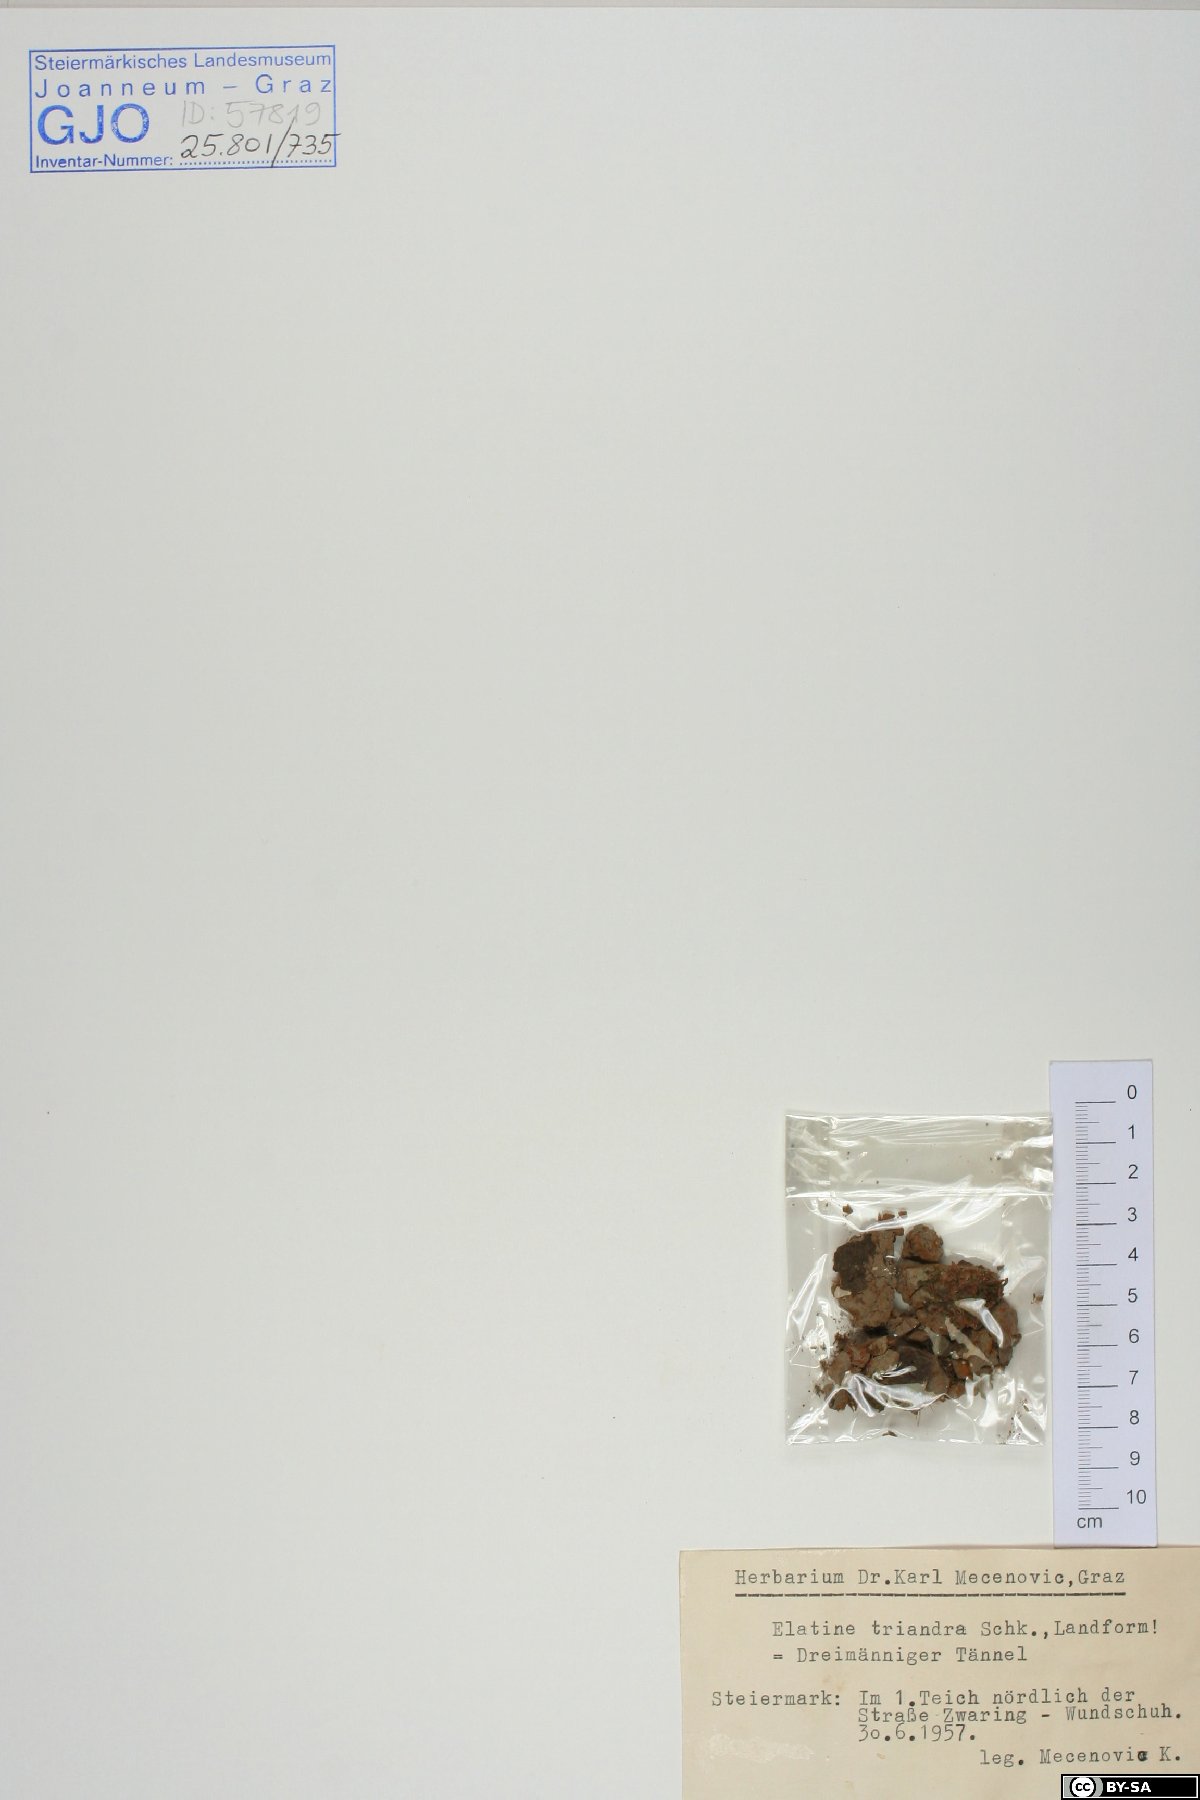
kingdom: Plantae
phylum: Tracheophyta
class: Magnoliopsida
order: Malpighiales
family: Elatinaceae
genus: Elatine
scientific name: Elatine triandra
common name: Three-stamened waterwort
